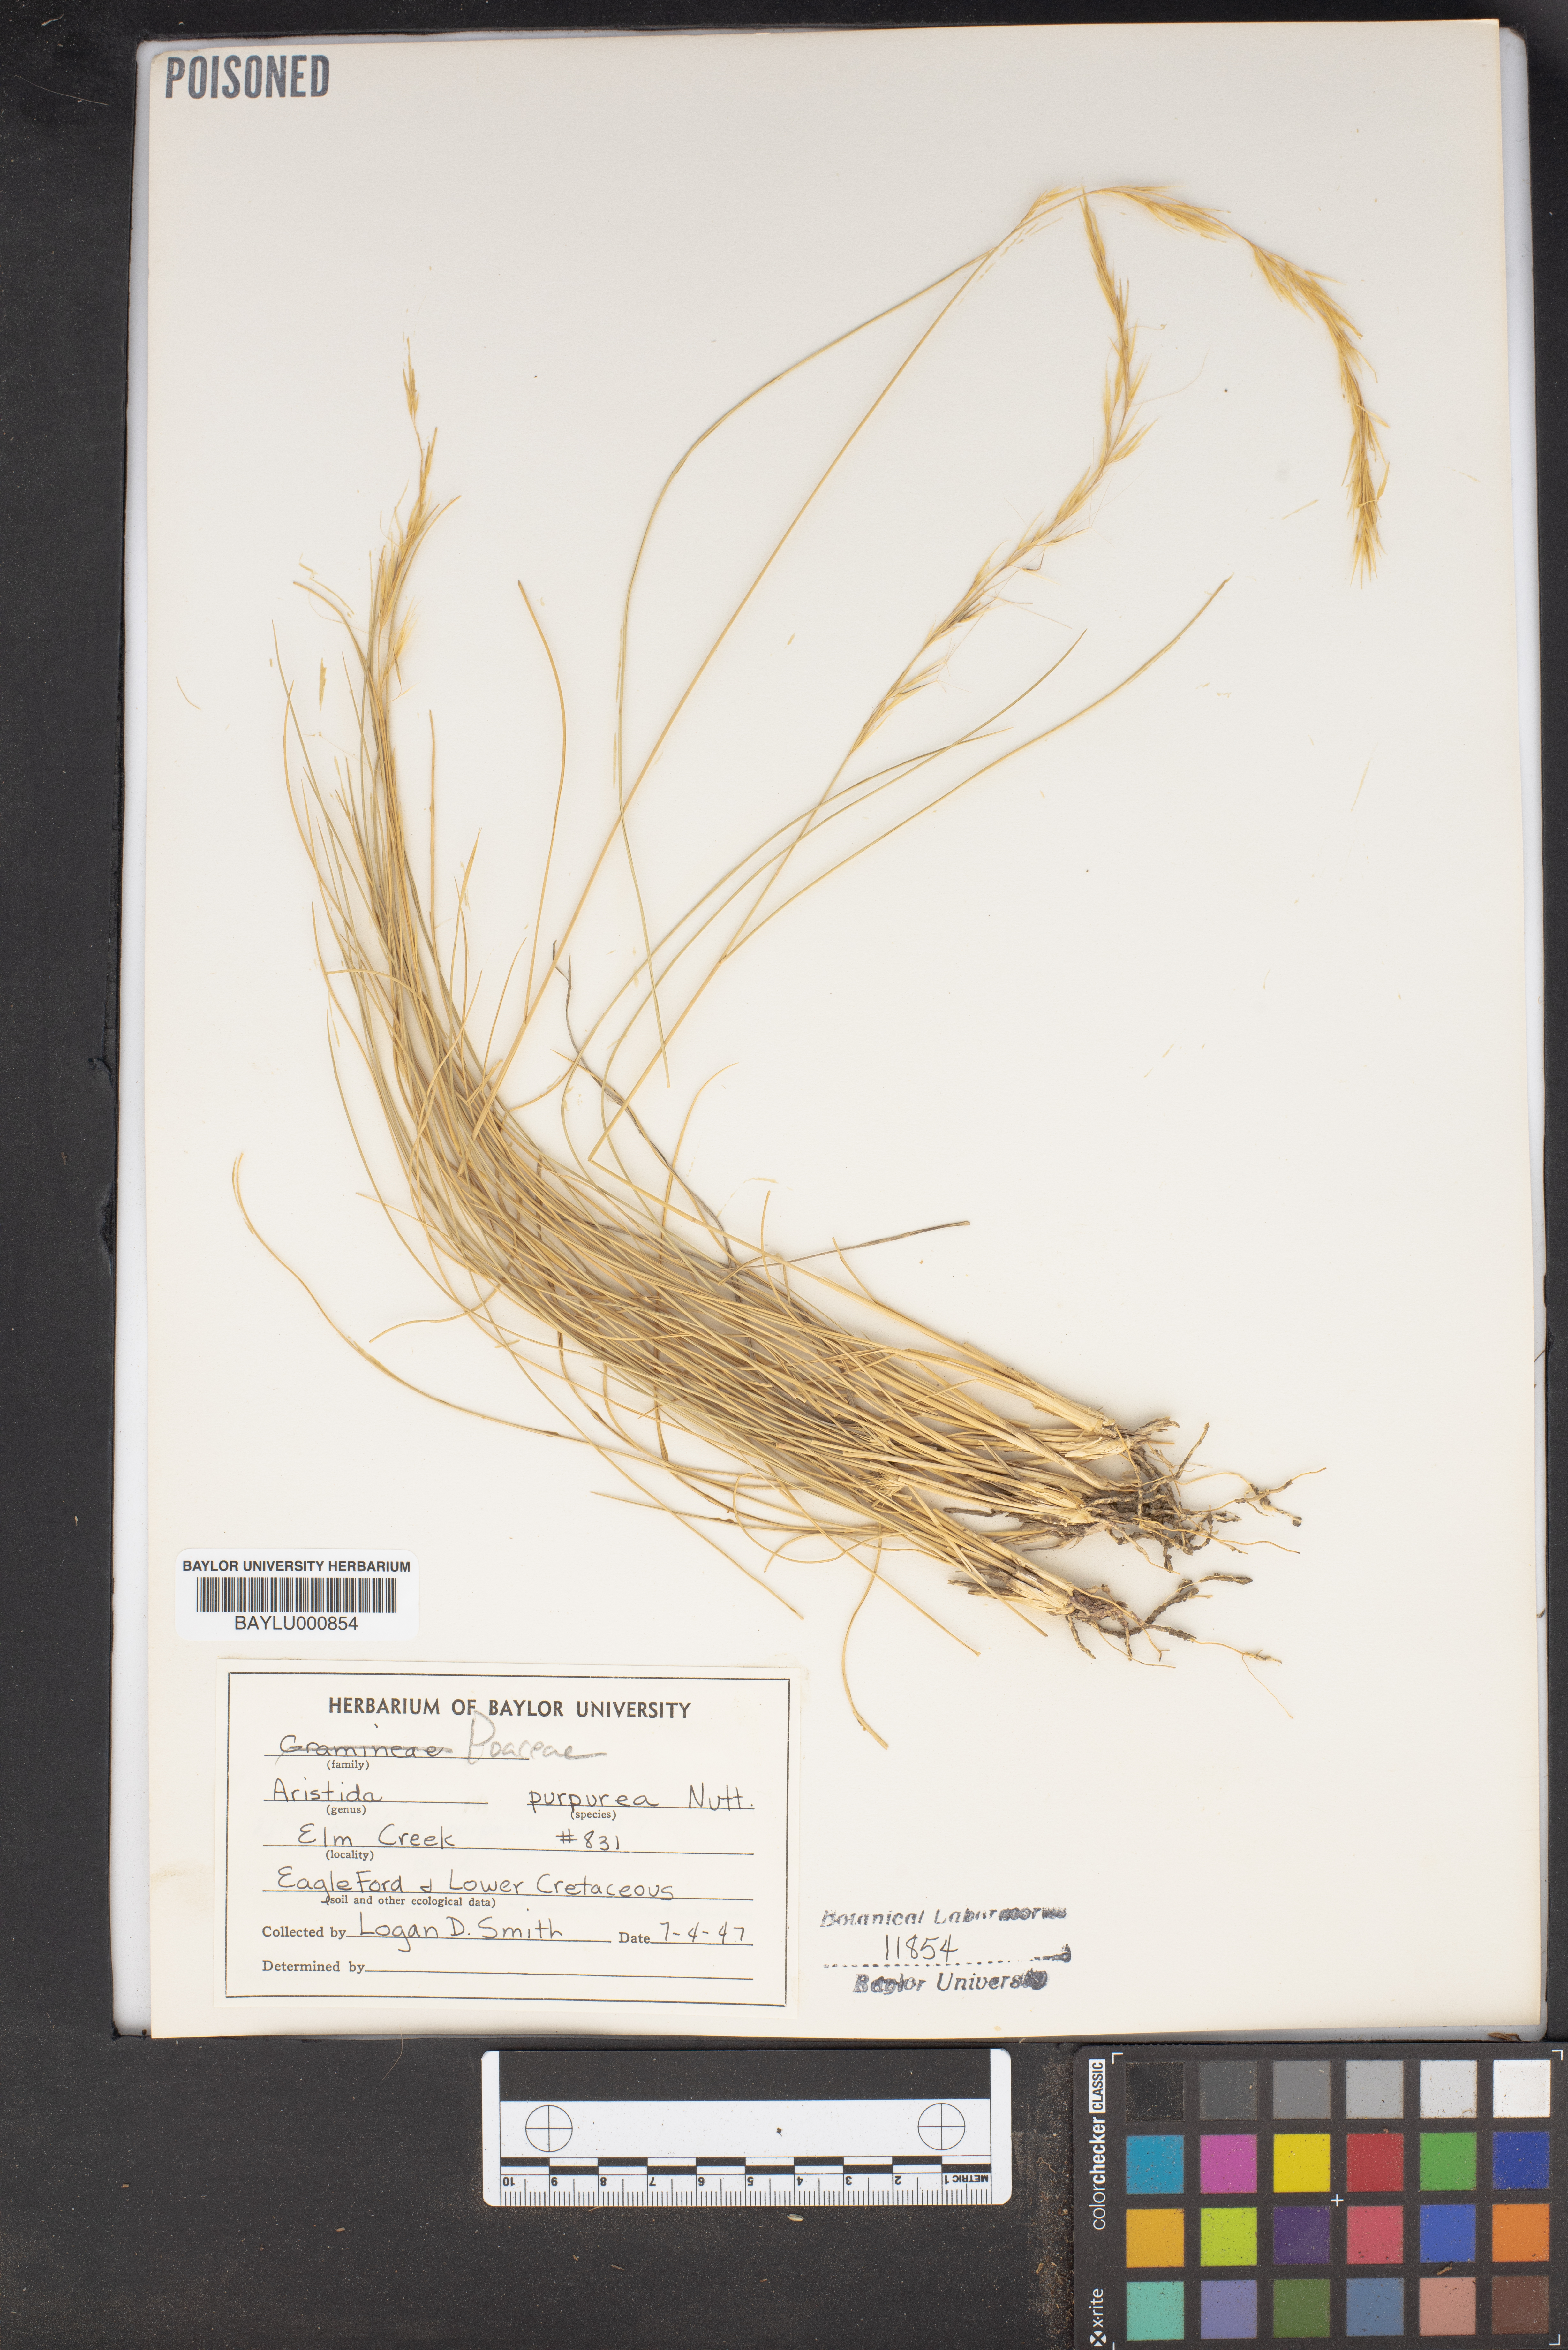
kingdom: Plantae
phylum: Tracheophyta
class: Liliopsida
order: Poales
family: Poaceae
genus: Aristida
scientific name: Aristida purpurea
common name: Purple threeawn
